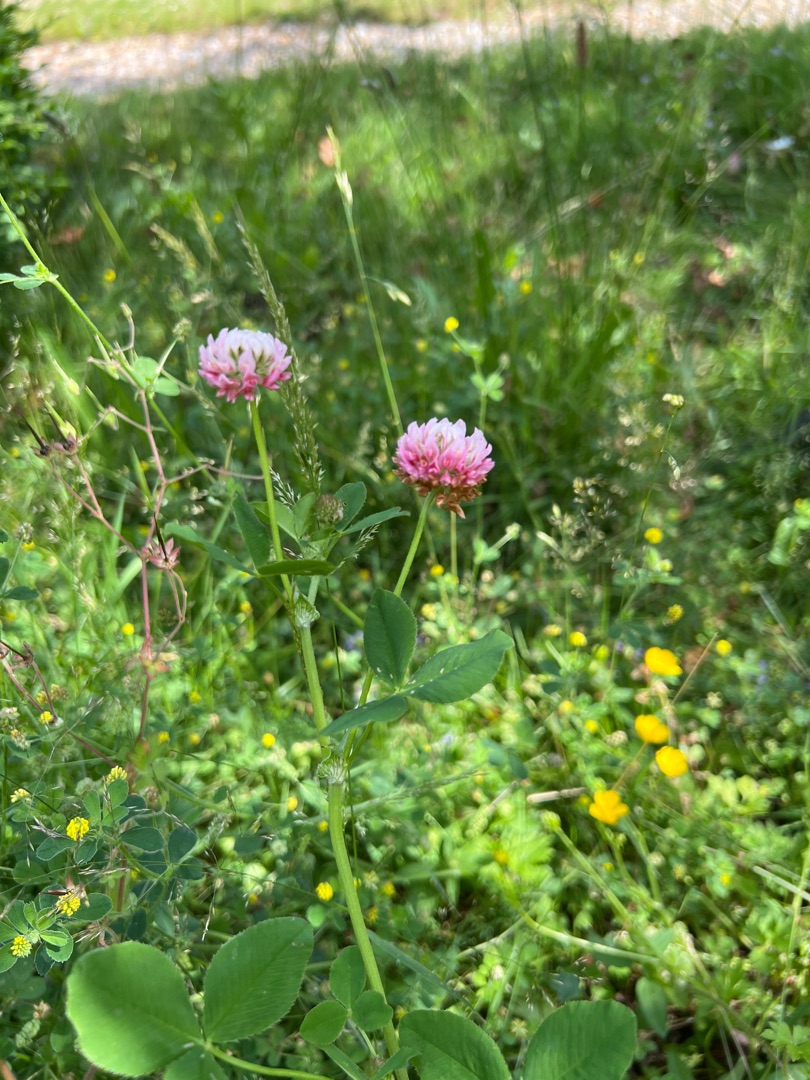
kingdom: Plantae
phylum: Tracheophyta
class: Magnoliopsida
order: Fabales
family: Fabaceae
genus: Trifolium
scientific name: Trifolium hybridum
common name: Alsike-kløver
